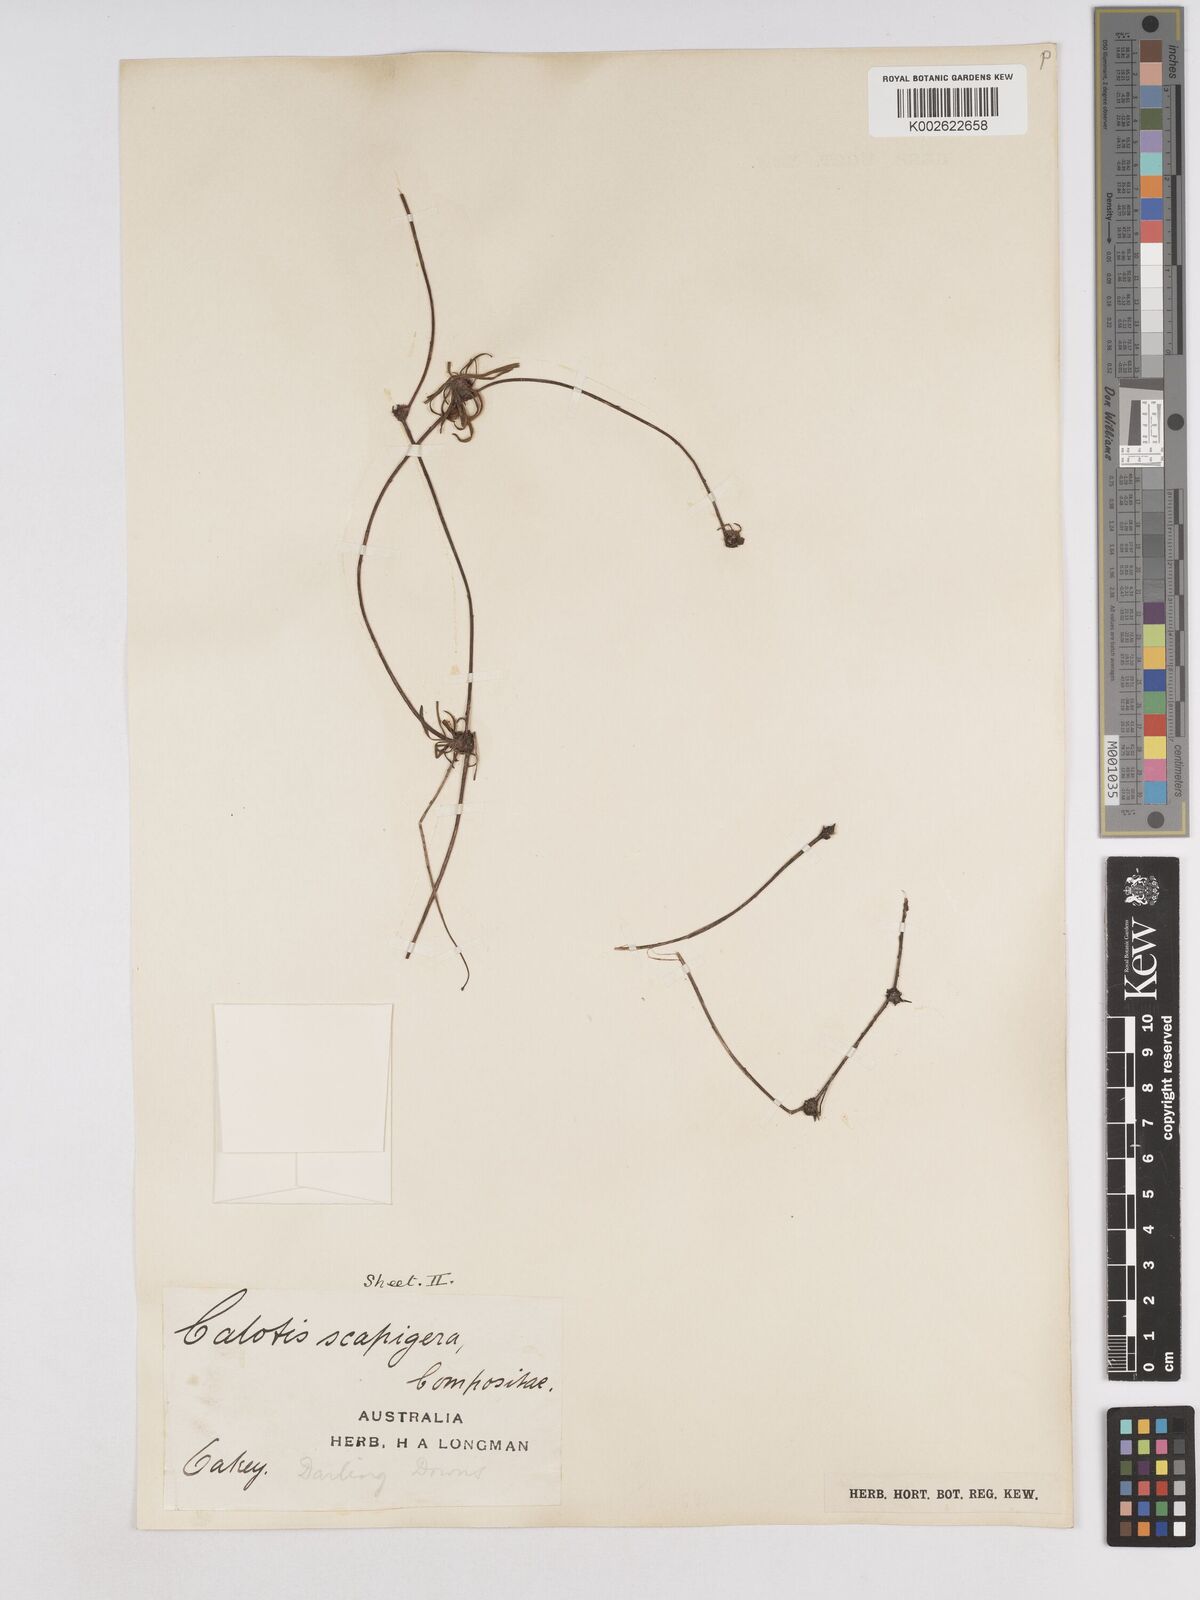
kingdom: Plantae
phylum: Tracheophyta
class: Magnoliopsida
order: Asterales
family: Asteraceae
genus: Calotis
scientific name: Calotis scapigera
